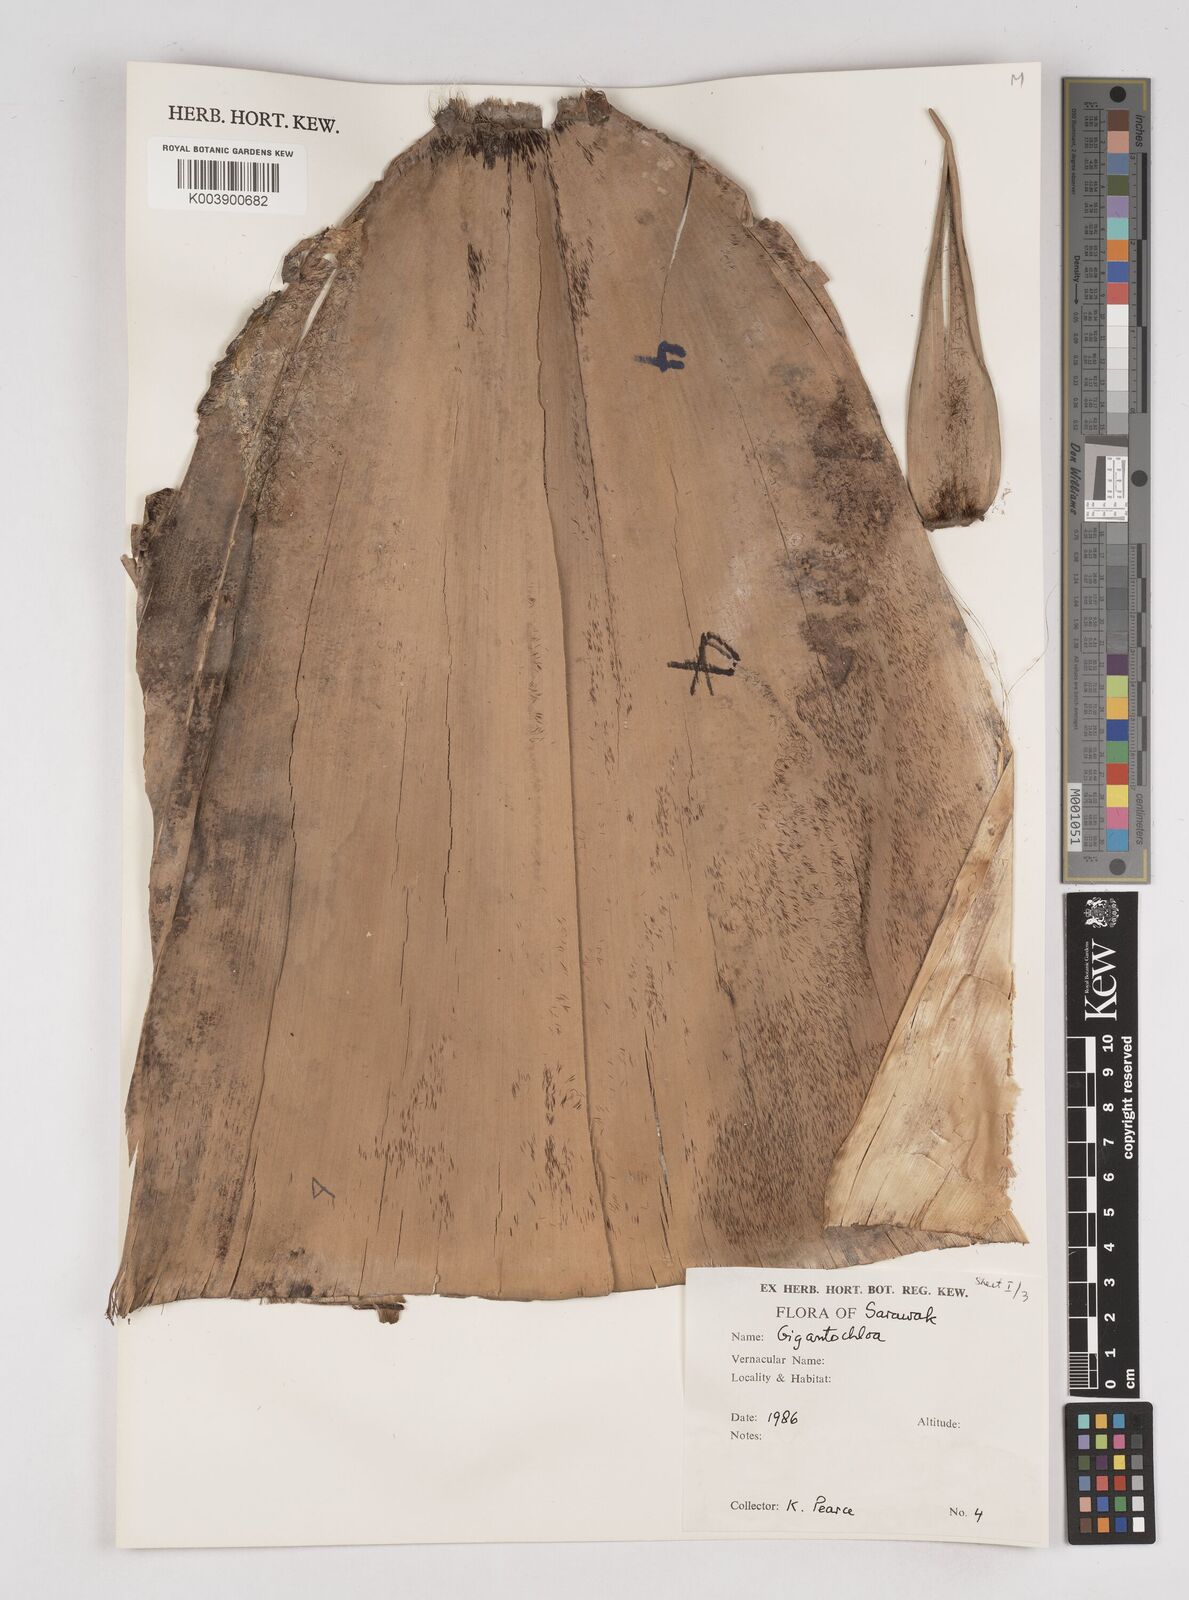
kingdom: Plantae
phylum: Tracheophyta
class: Liliopsida
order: Poales
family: Poaceae
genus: Gigantochloa
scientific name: Gigantochloa
